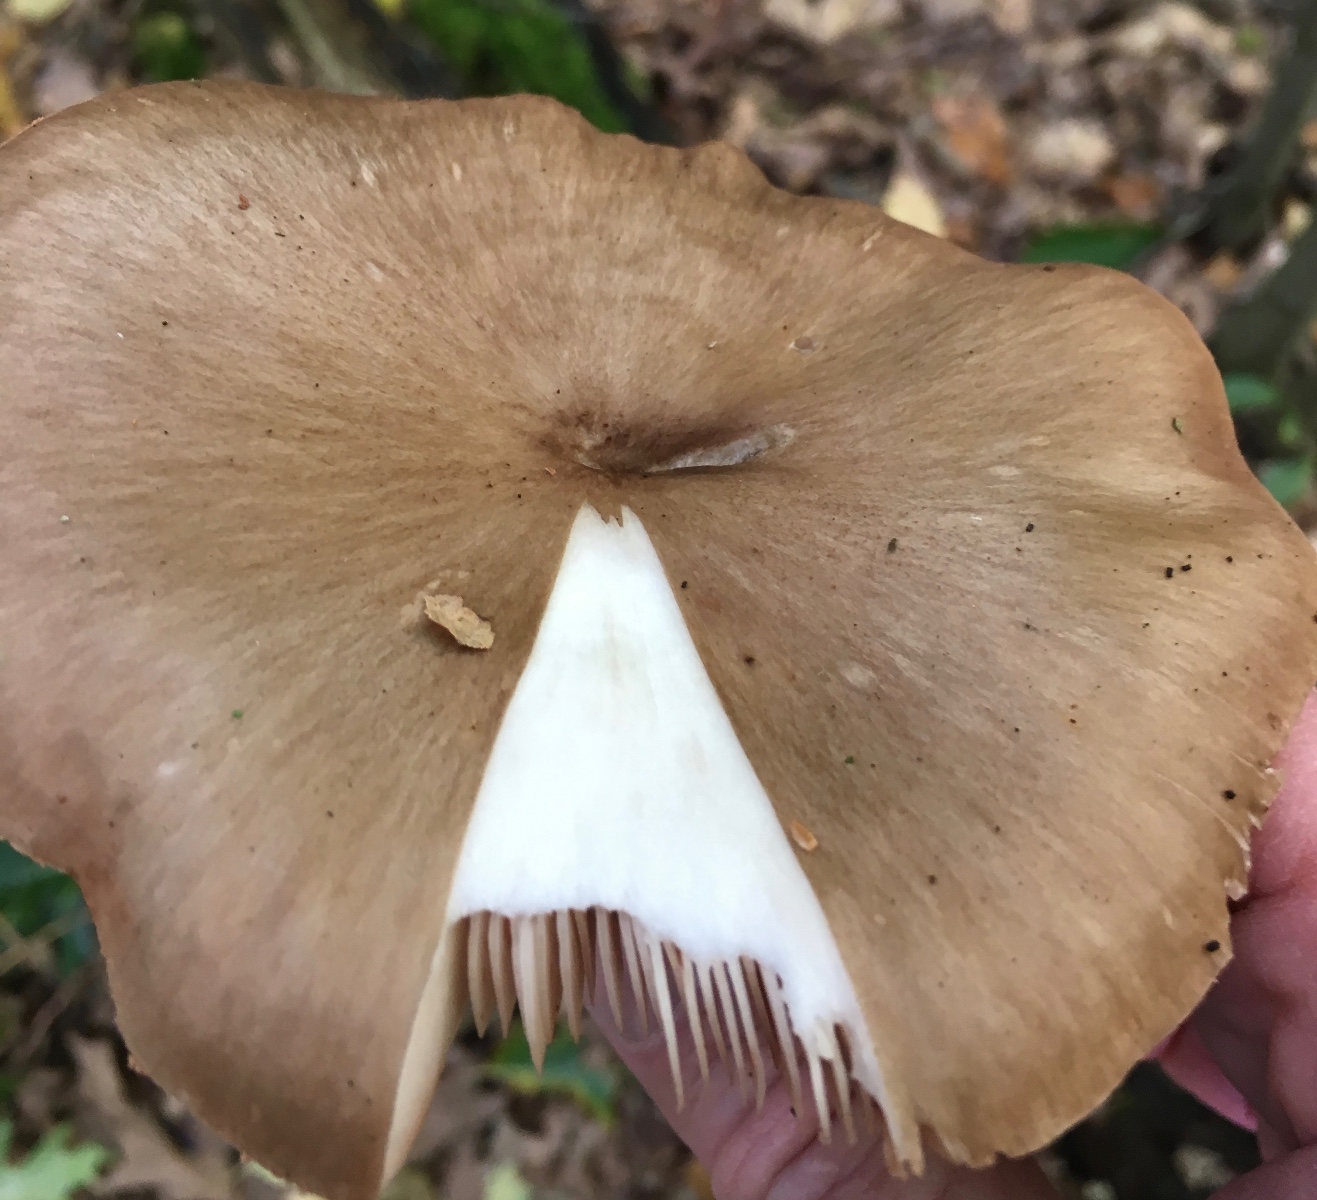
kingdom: Fungi
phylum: Basidiomycota
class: Agaricomycetes
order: Agaricales
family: Pluteaceae
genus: Pluteus
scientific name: Pluteus cervinus
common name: sodfarvet skærmhat
